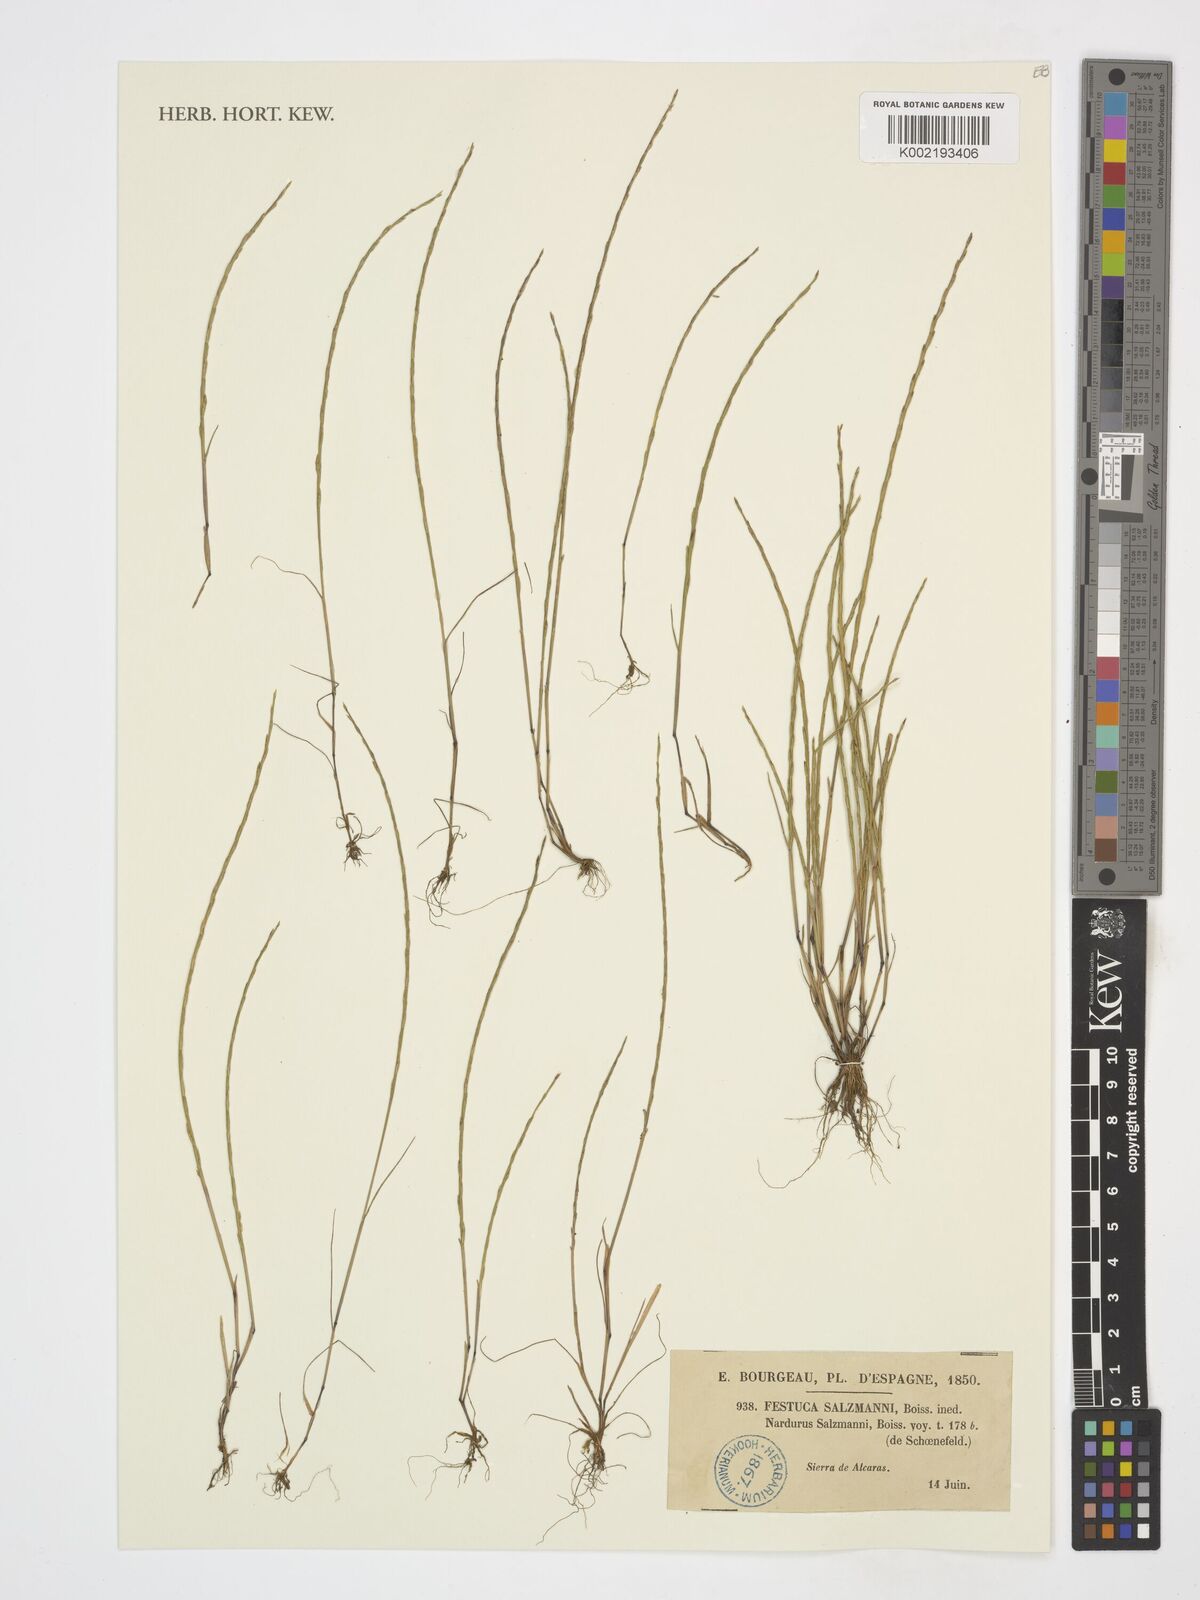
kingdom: Plantae
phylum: Tracheophyta
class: Liliopsida
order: Poales
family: Poaceae
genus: Festuca
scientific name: Festuca salzmannii
